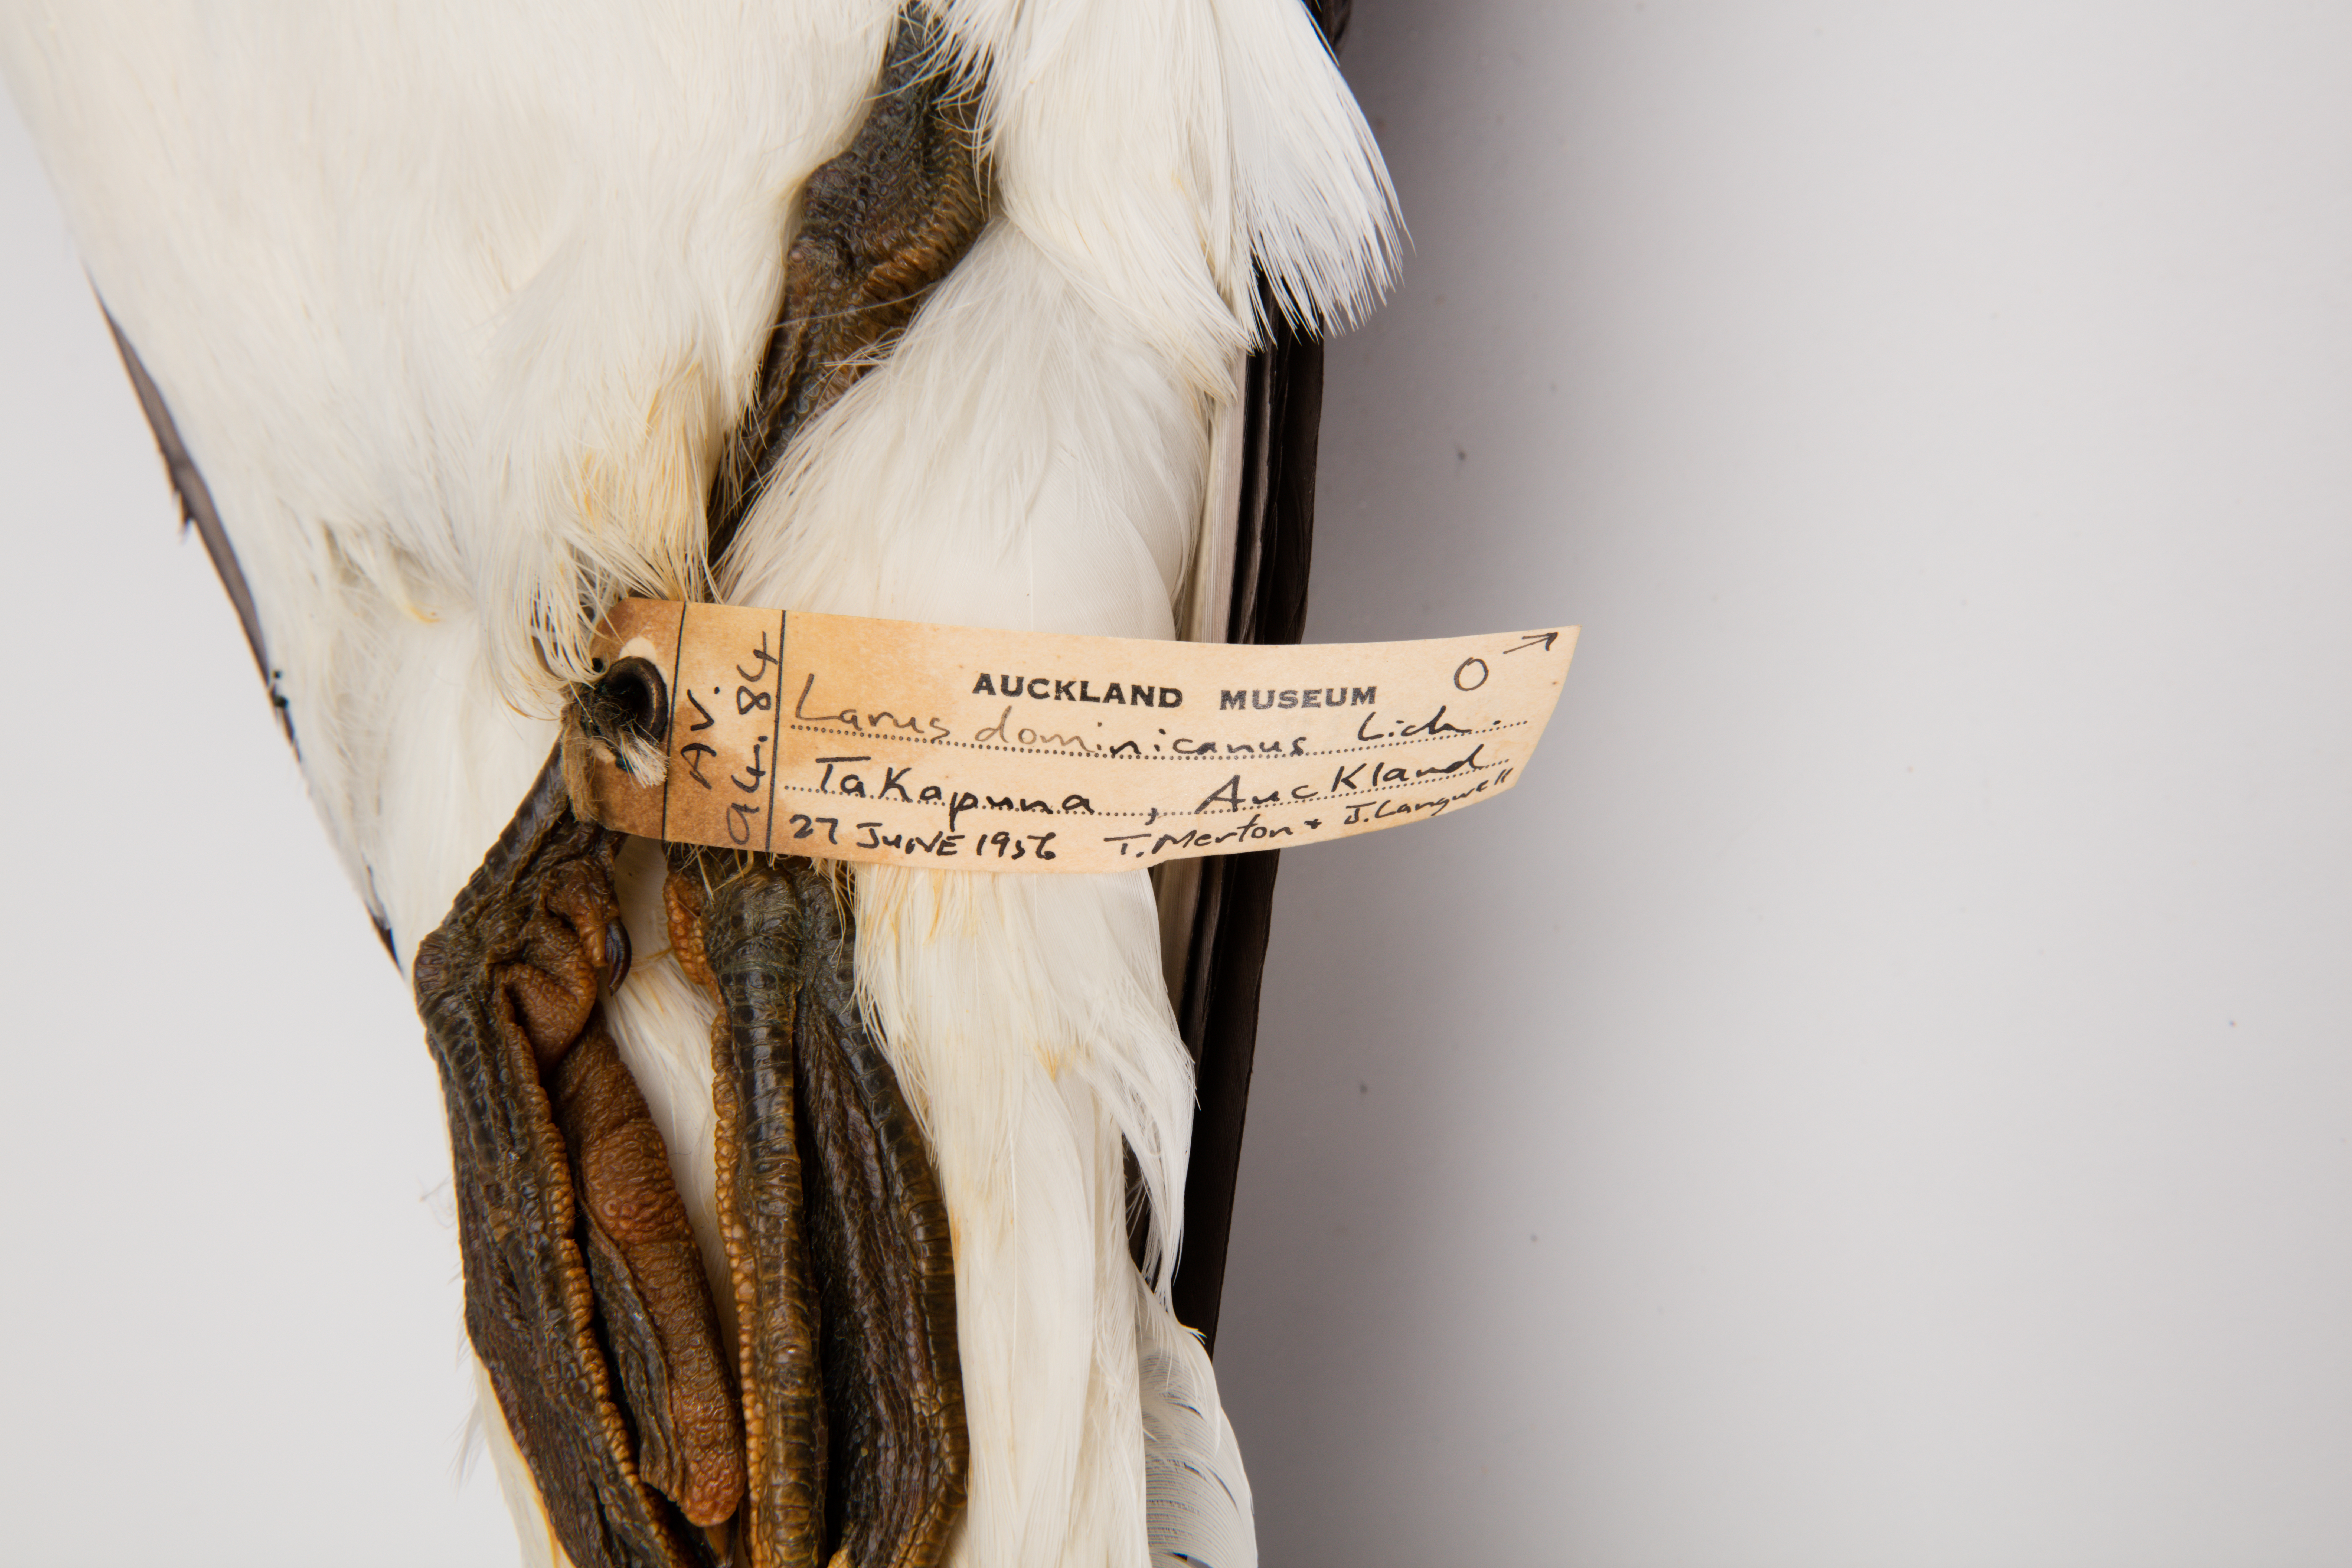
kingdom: Animalia
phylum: Chordata
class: Aves
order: Charadriiformes
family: Laridae
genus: Larus
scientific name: Larus dominicanus
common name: Kelp gull
